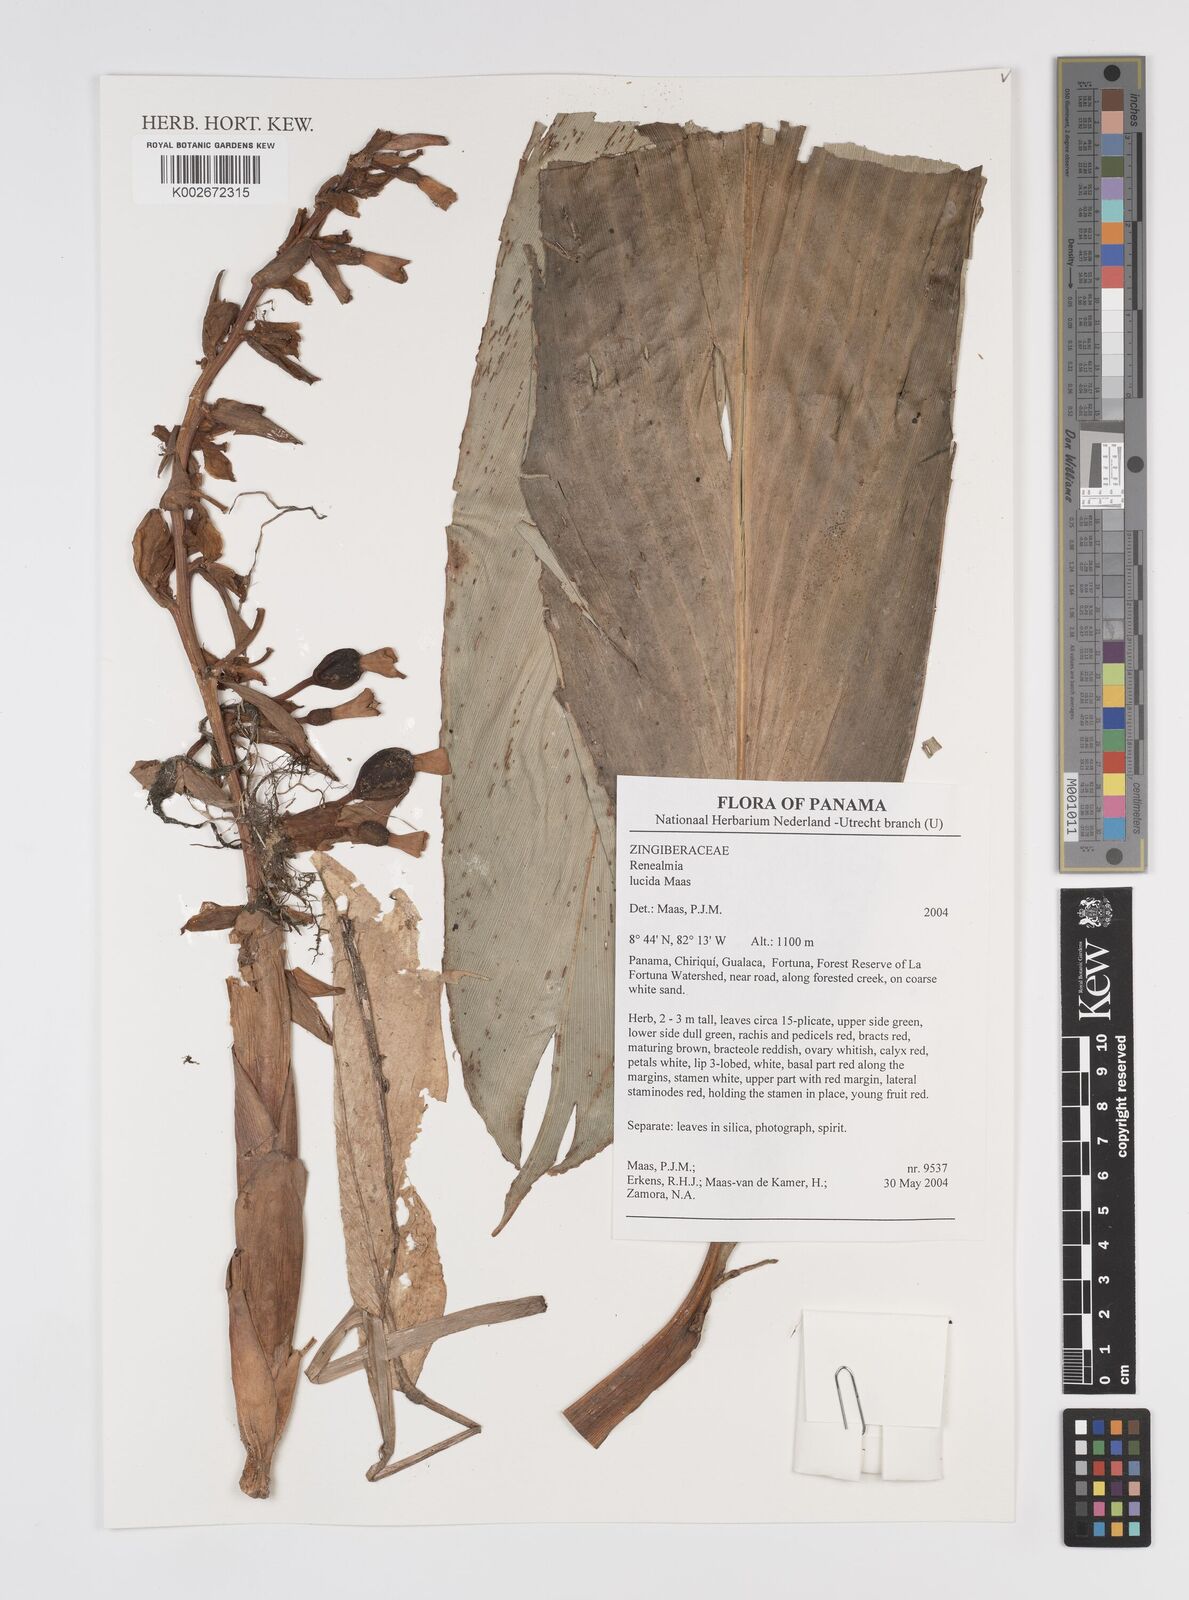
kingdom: Plantae
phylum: Tracheophyta
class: Liliopsida
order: Zingiberales
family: Zingiberaceae
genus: Renealmia
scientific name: Renealmia lucida
